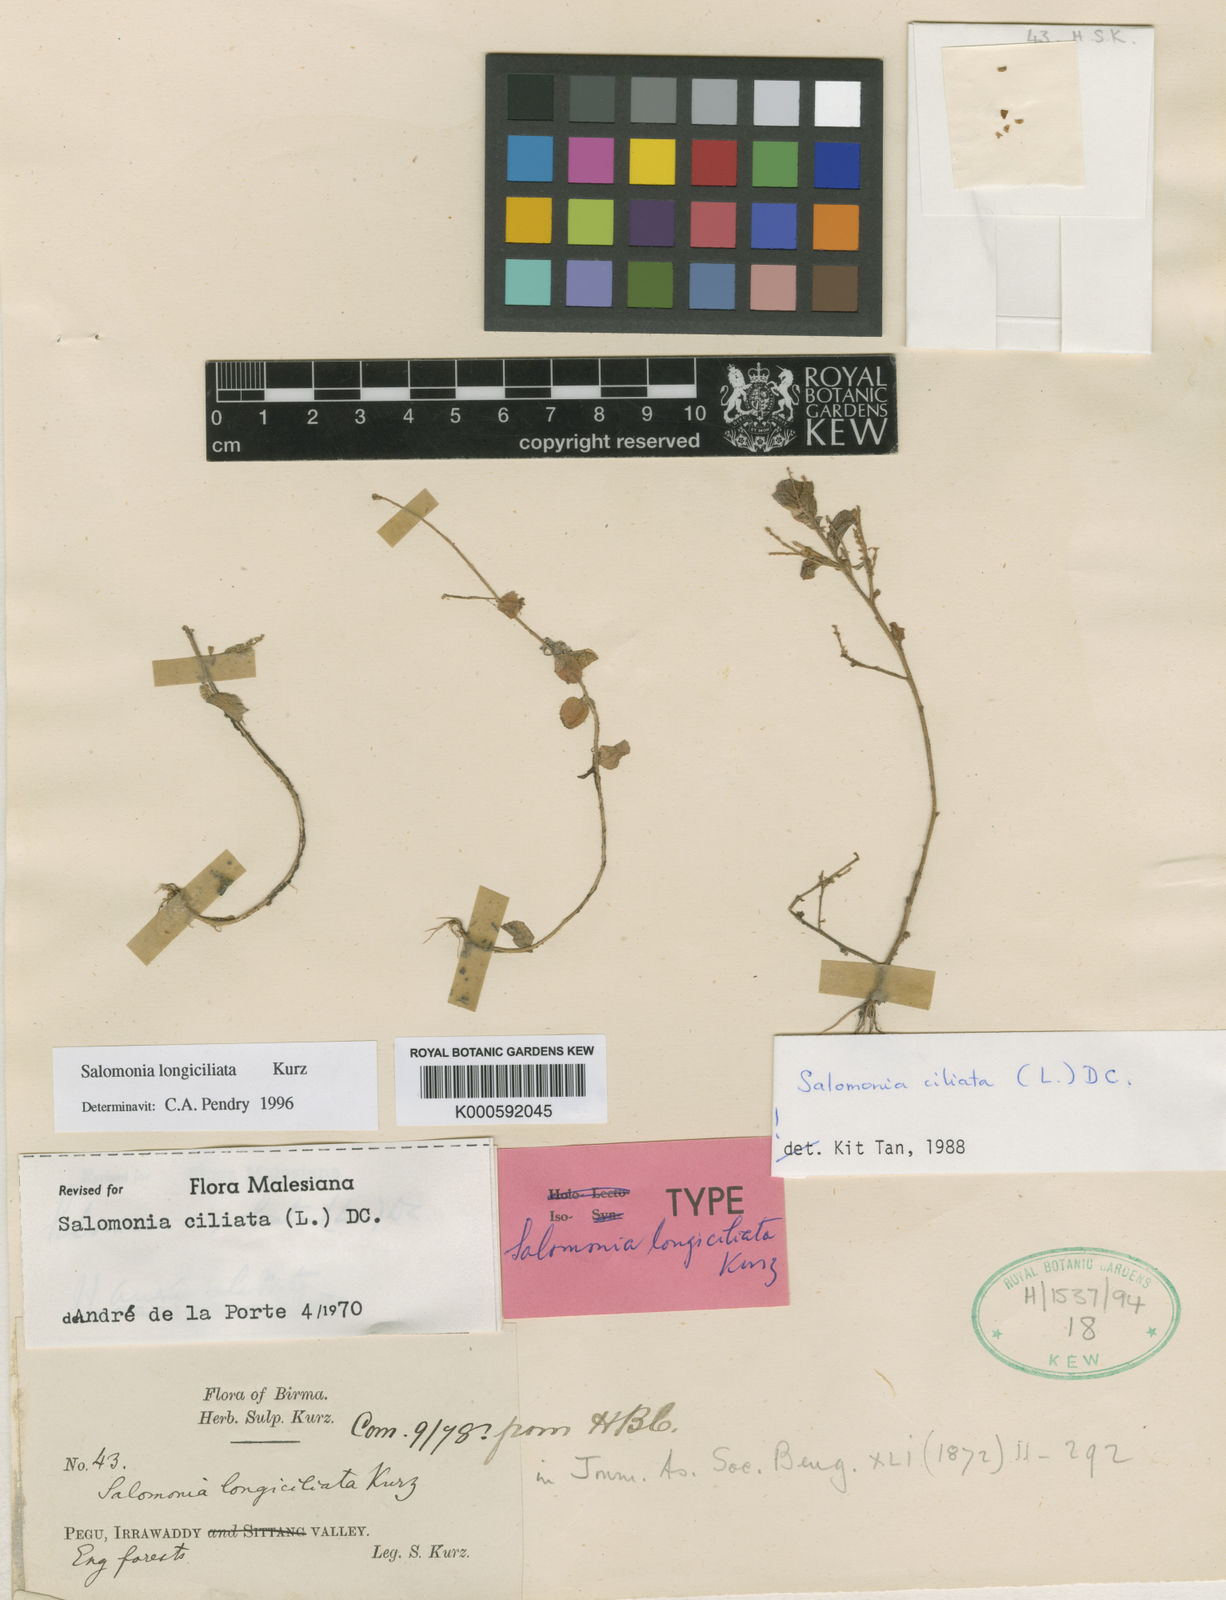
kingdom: Plantae
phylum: Tracheophyta
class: Magnoliopsida
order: Fabales
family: Polygalaceae
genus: Salomonia
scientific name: Salomonia longiciliata
